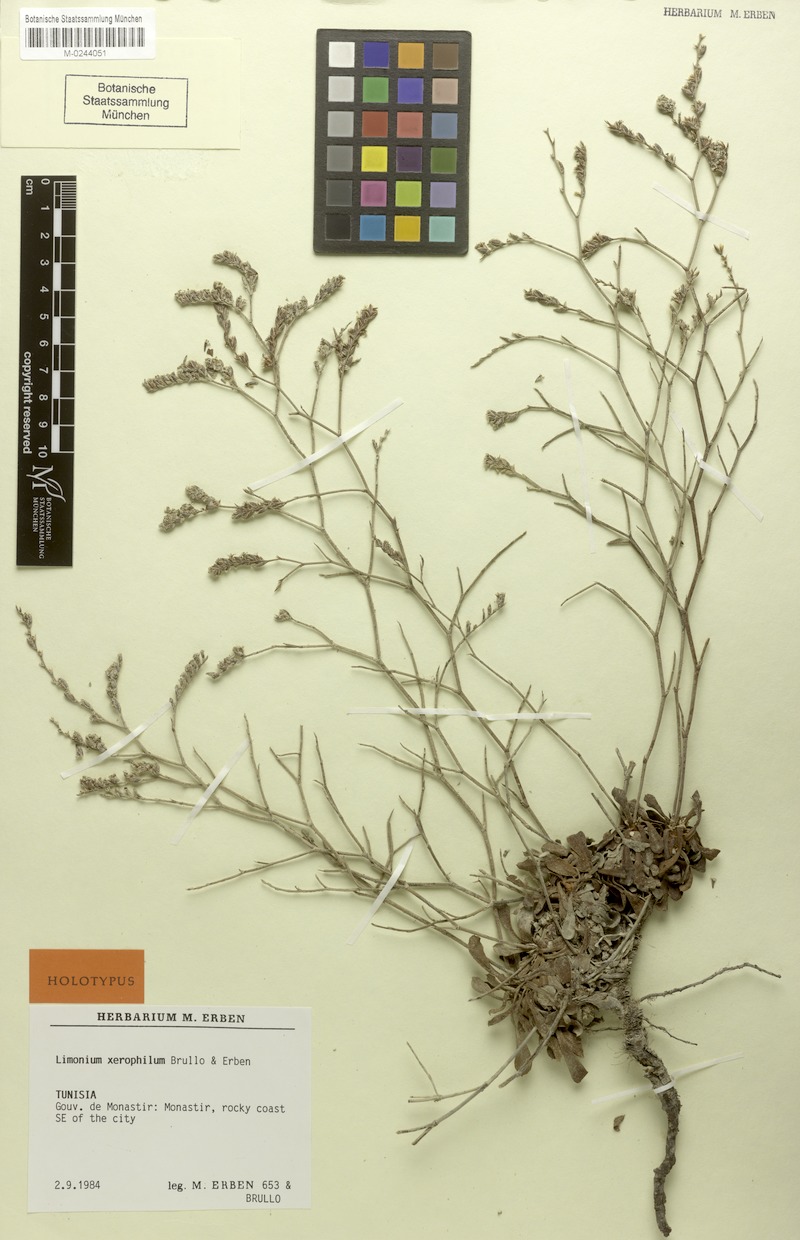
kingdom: Plantae
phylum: Tracheophyta
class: Magnoliopsida
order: Caryophyllales
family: Plumbaginaceae
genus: Limonium
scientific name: Limonium xerophilum
